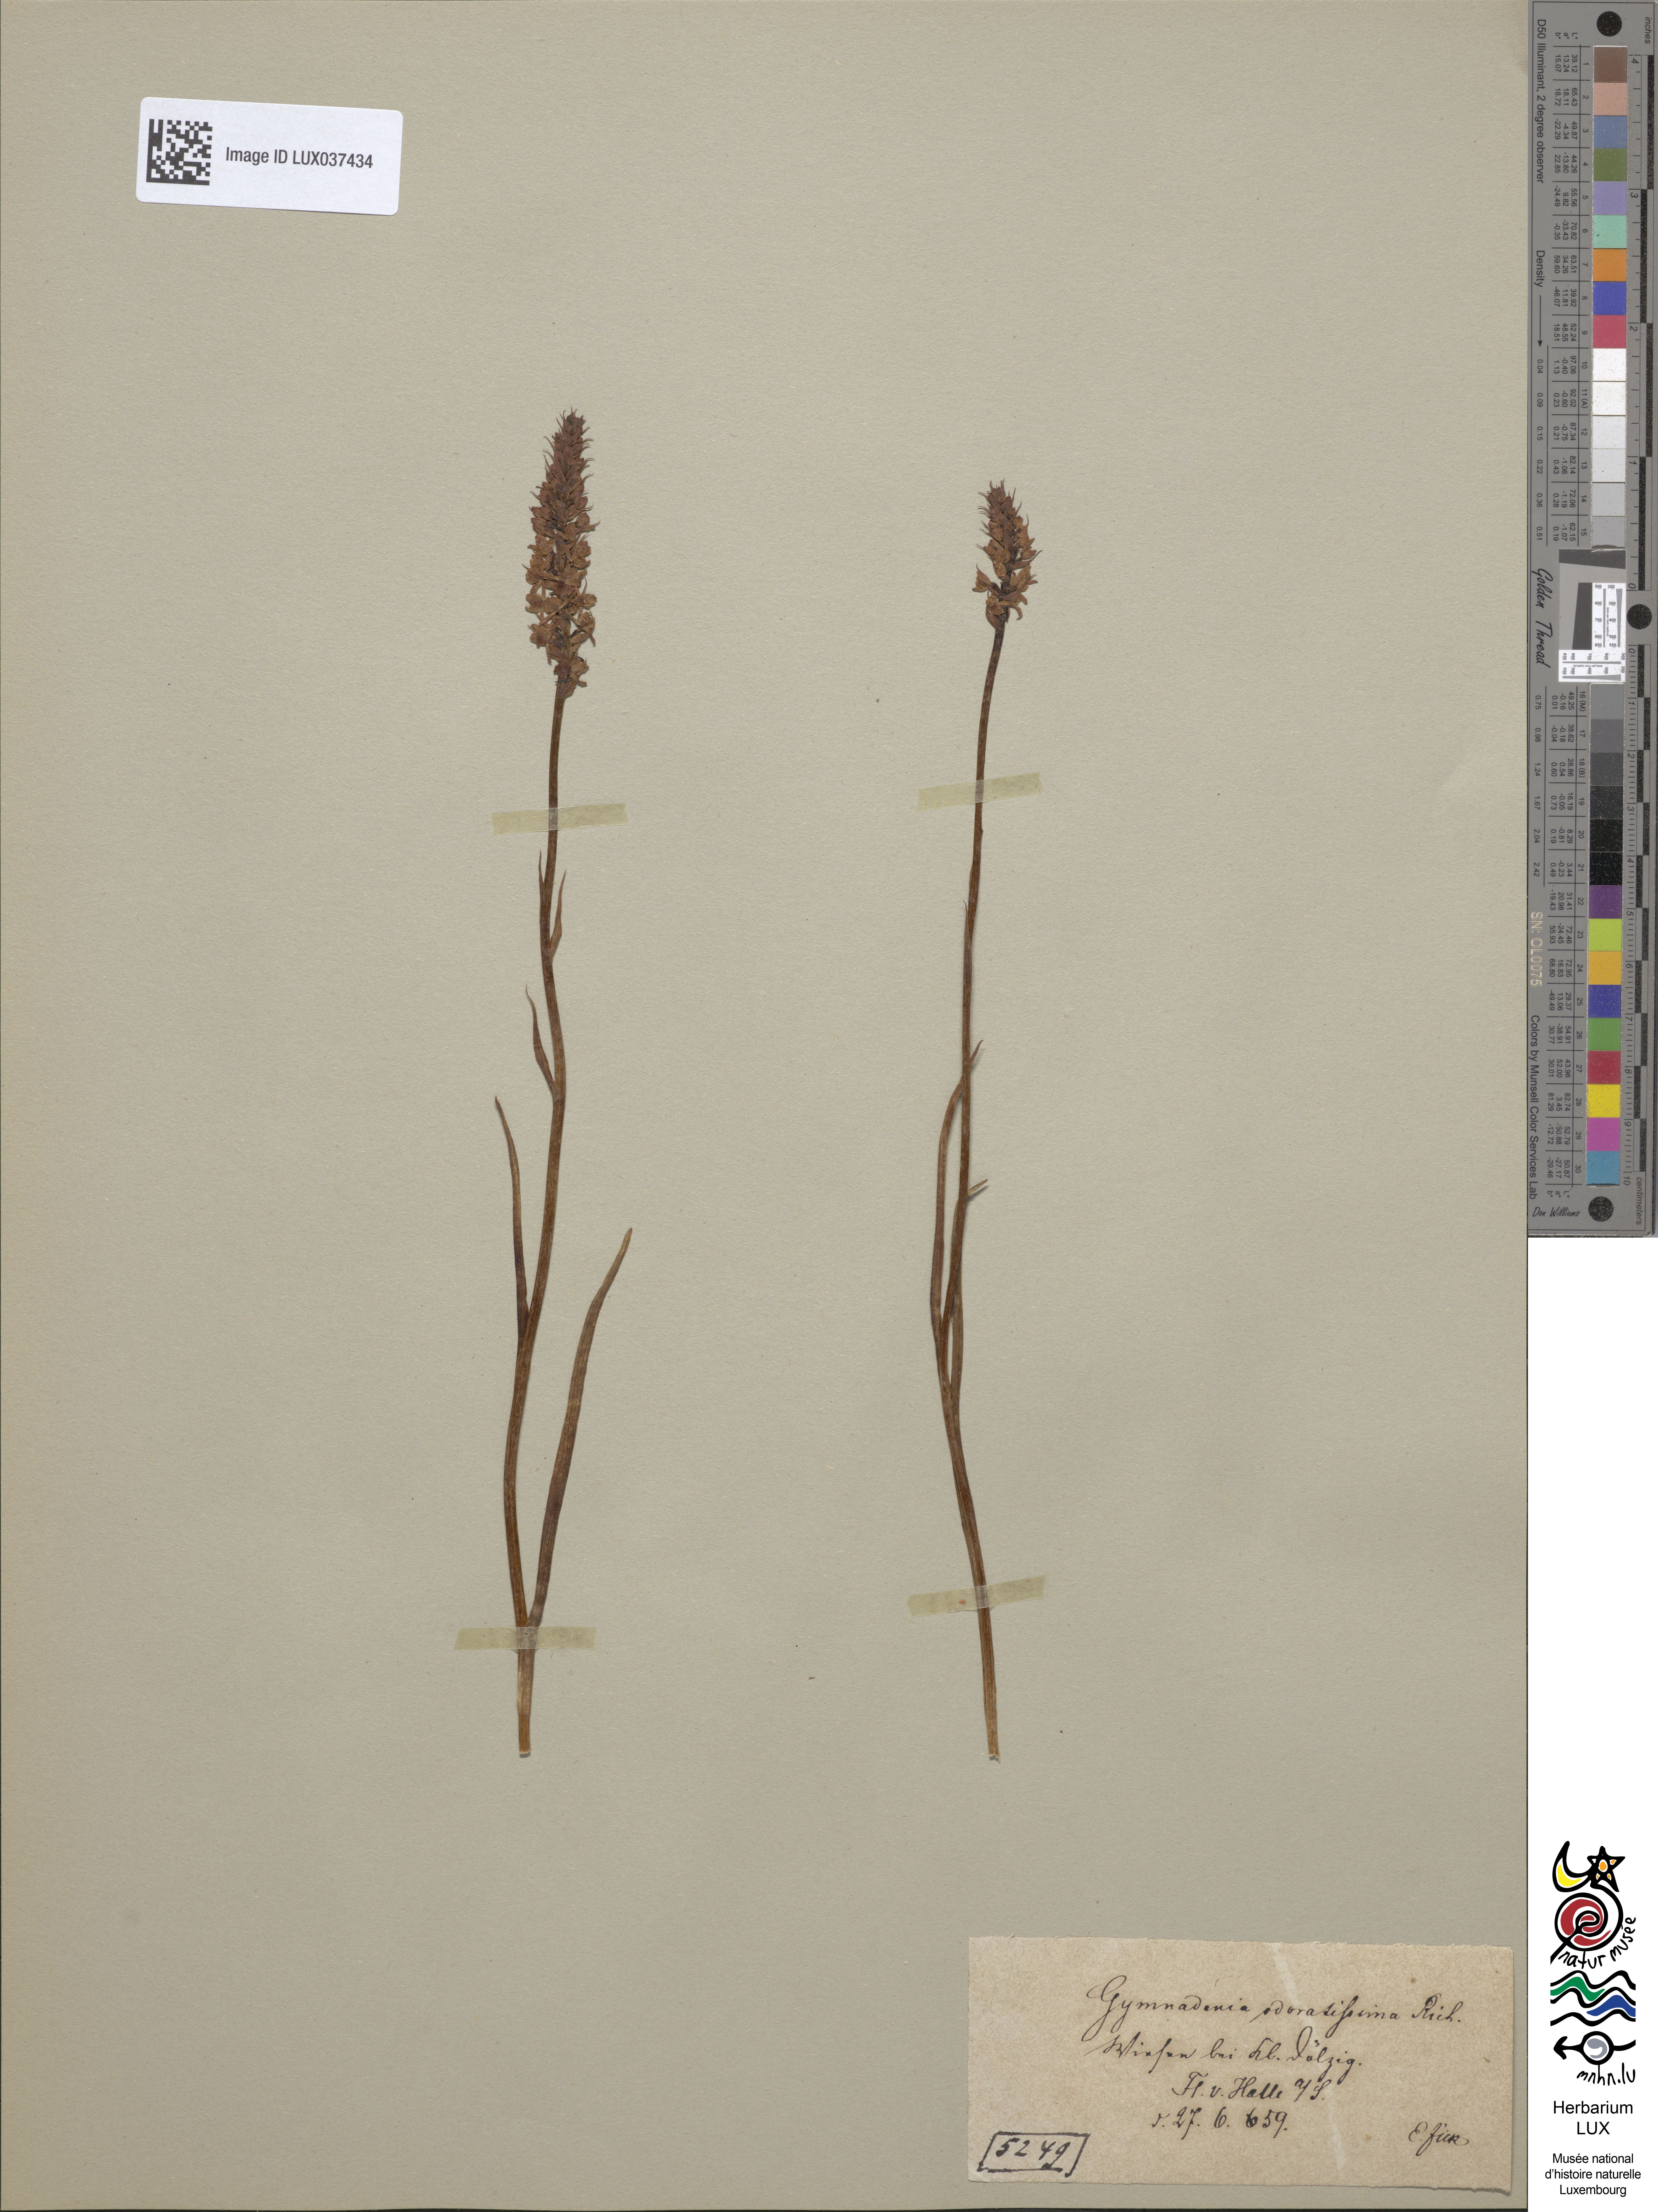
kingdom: Plantae
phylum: Tracheophyta
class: Liliopsida
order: Asparagales
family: Orchidaceae
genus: Gymnadenia
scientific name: Gymnadenia odoratissima
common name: Scented gymnadenia
